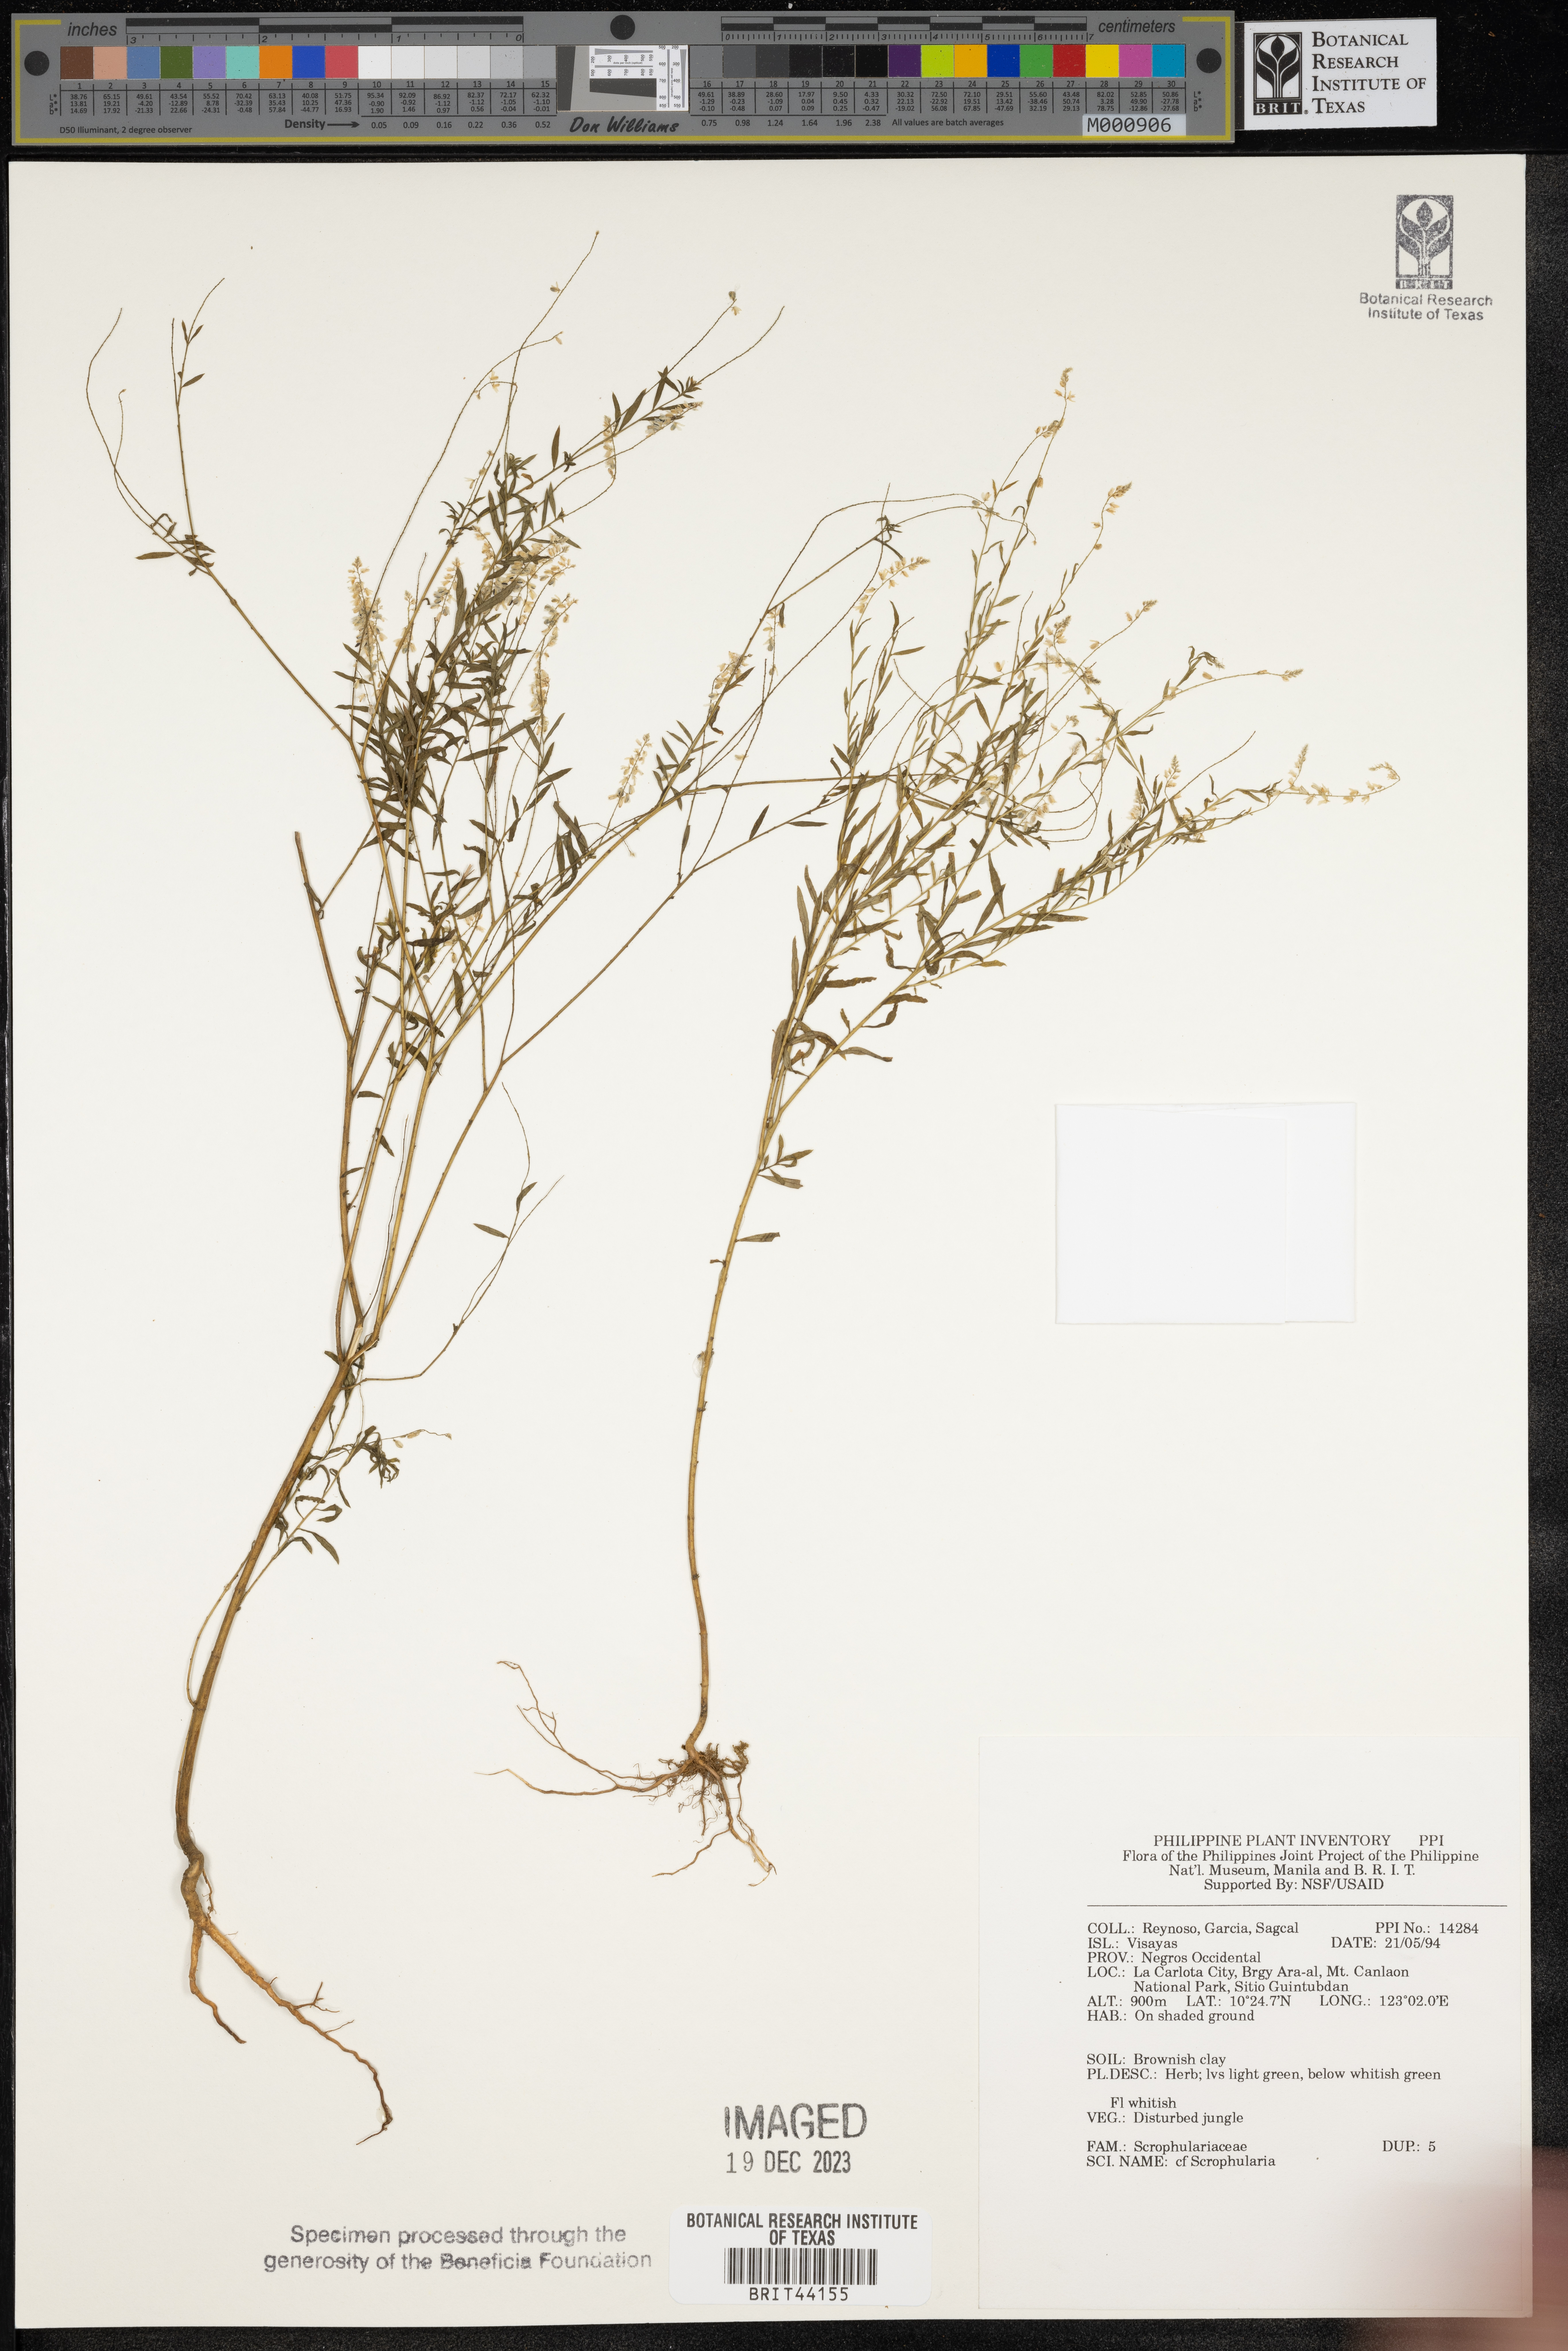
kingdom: Plantae
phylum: Tracheophyta
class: Magnoliopsida
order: Lamiales
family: Scrophulariaceae
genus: Scrophularia
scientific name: Scrophularia
